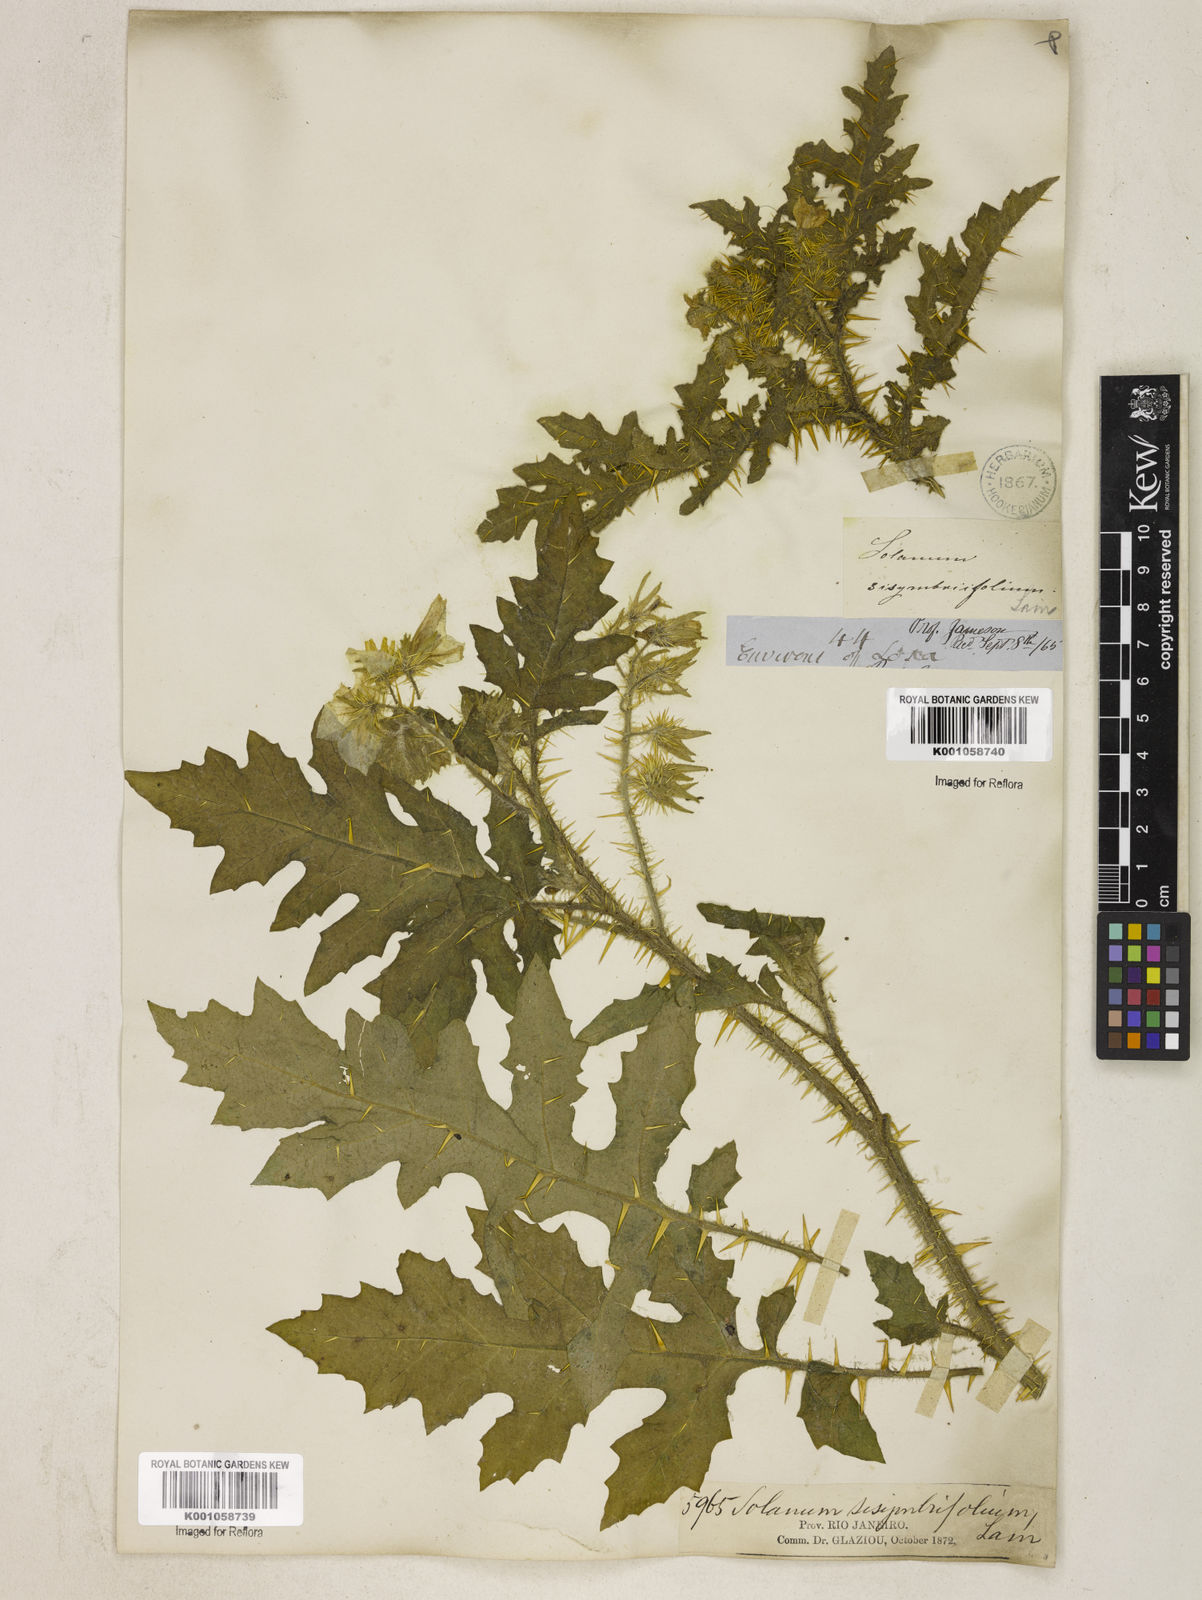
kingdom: Plantae
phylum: Tracheophyta
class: Magnoliopsida
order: Solanales
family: Solanaceae
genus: Solanum
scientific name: Solanum sisymbriifolium
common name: Red buffalo-bur
